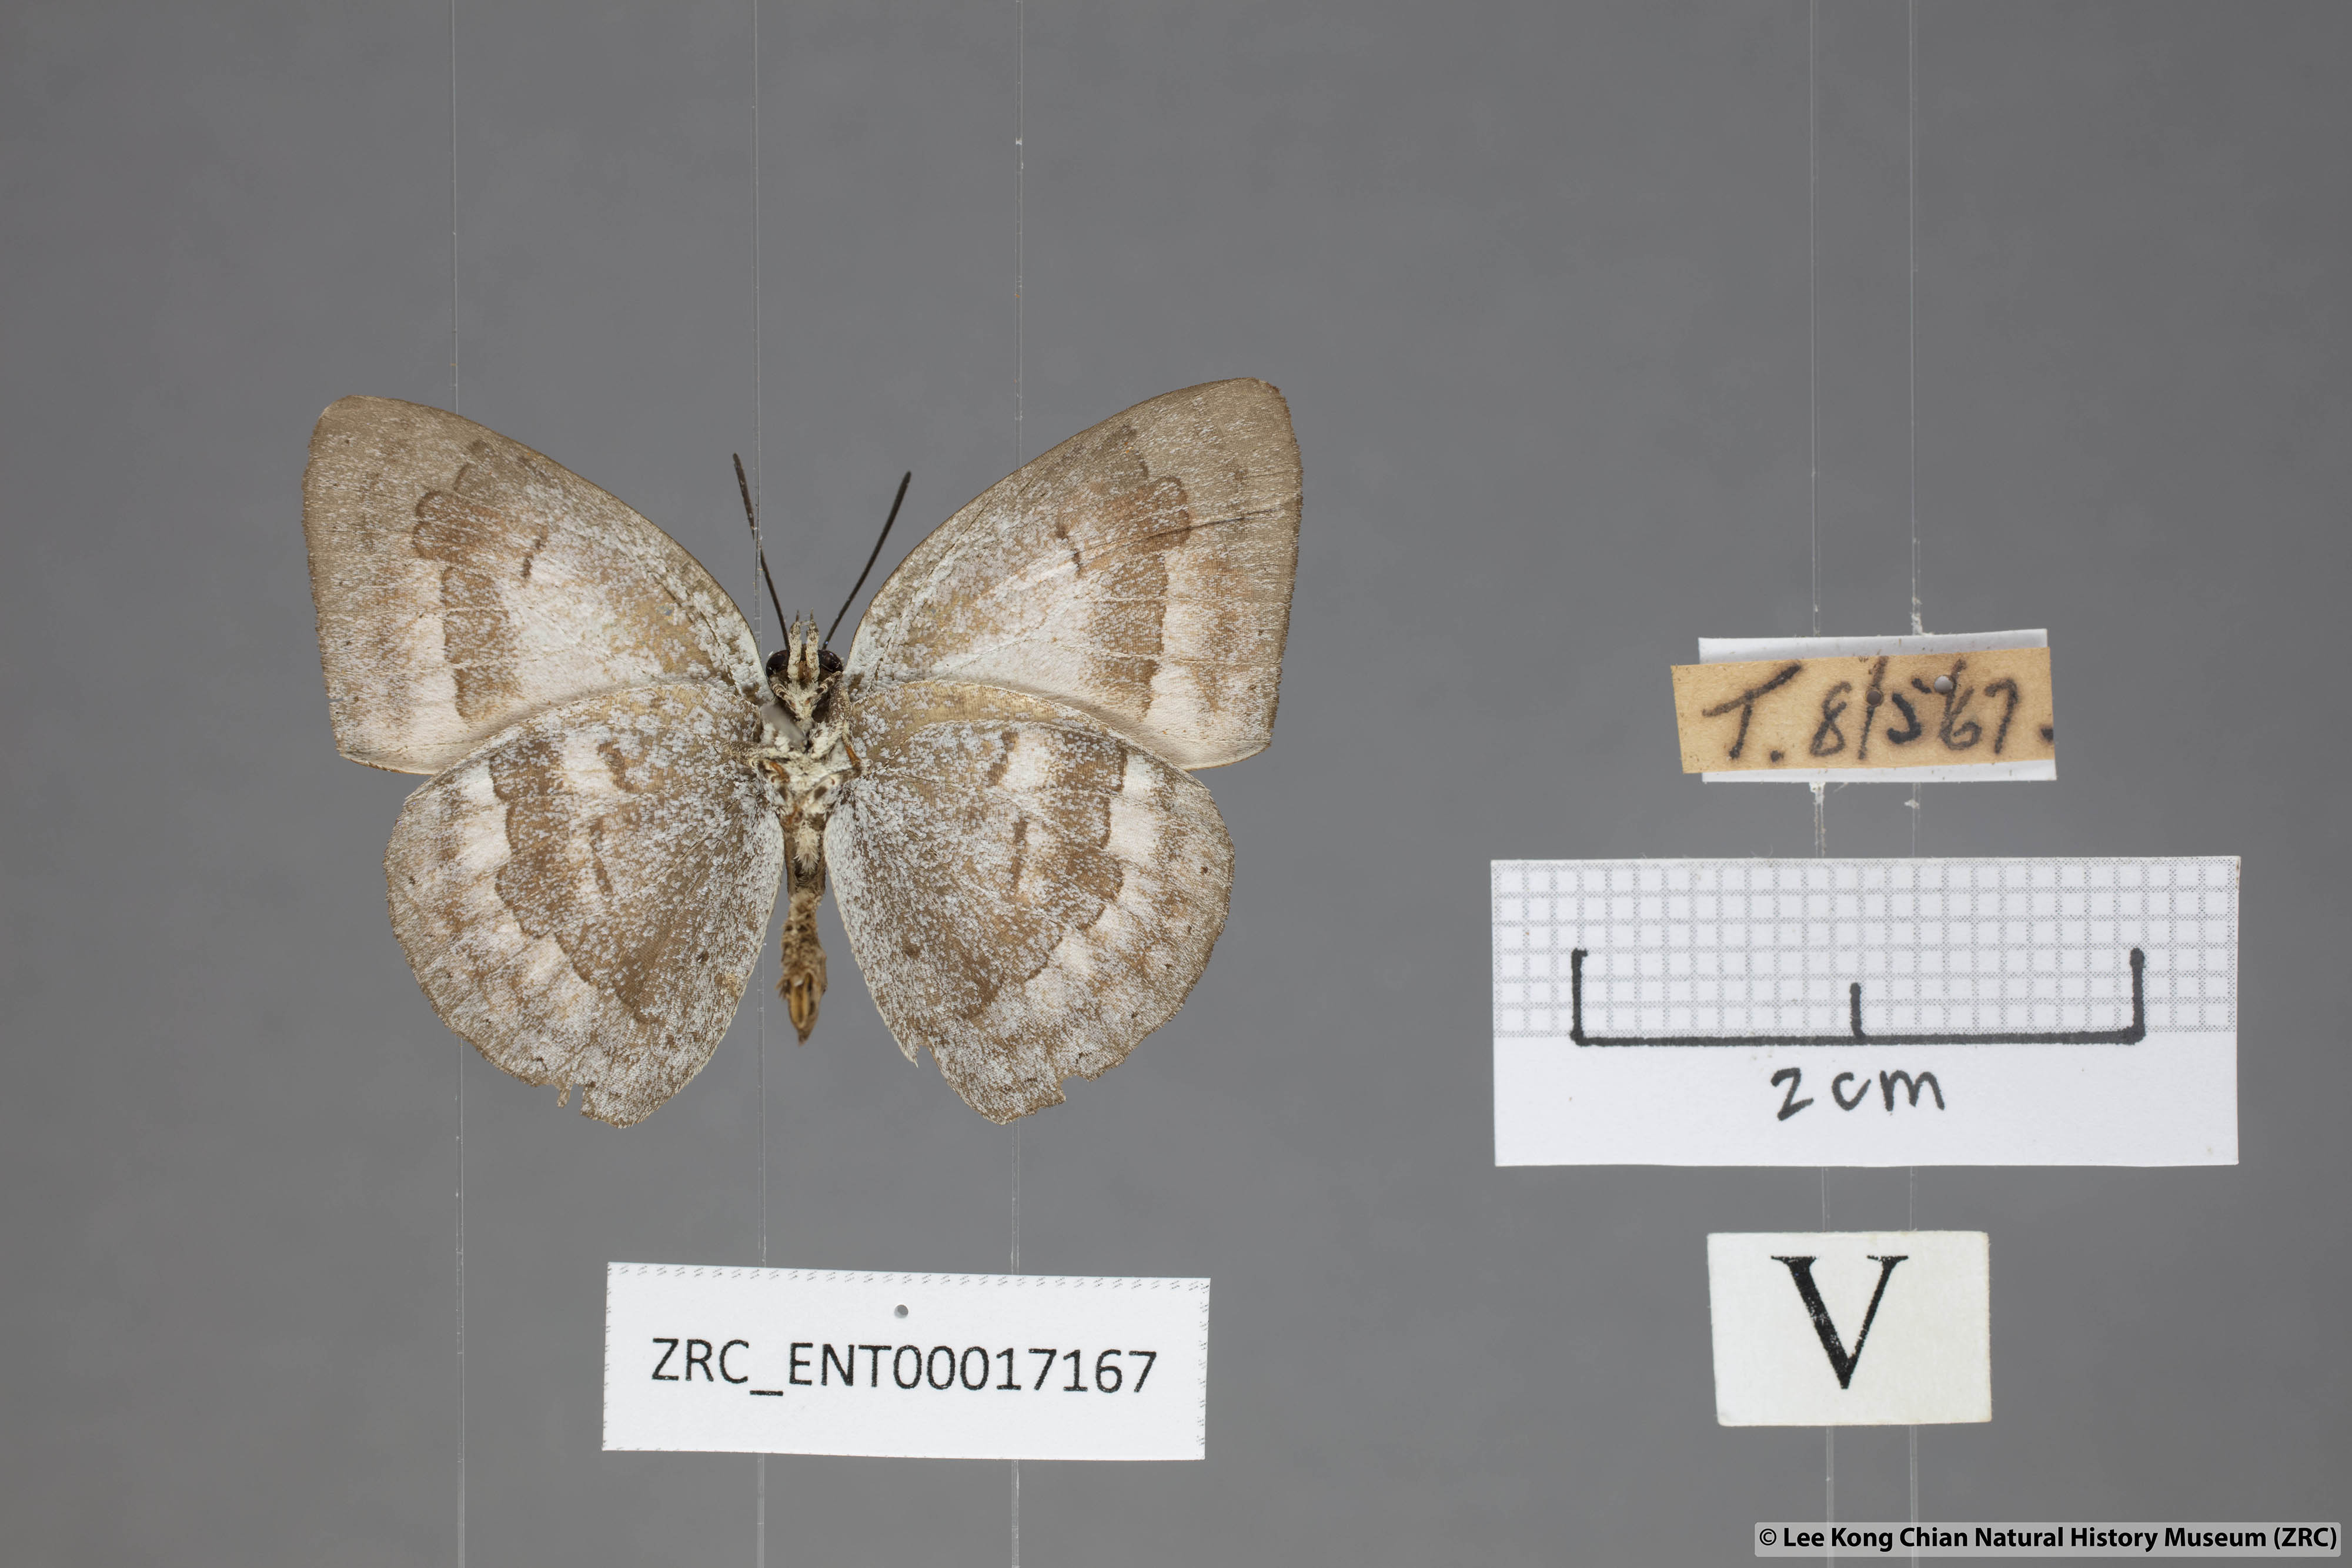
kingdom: Animalia
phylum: Arthropoda
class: Insecta
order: Lepidoptera
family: Lycaenidae
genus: Curetis
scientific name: Curetis tagalica
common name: Southern sunbeam
